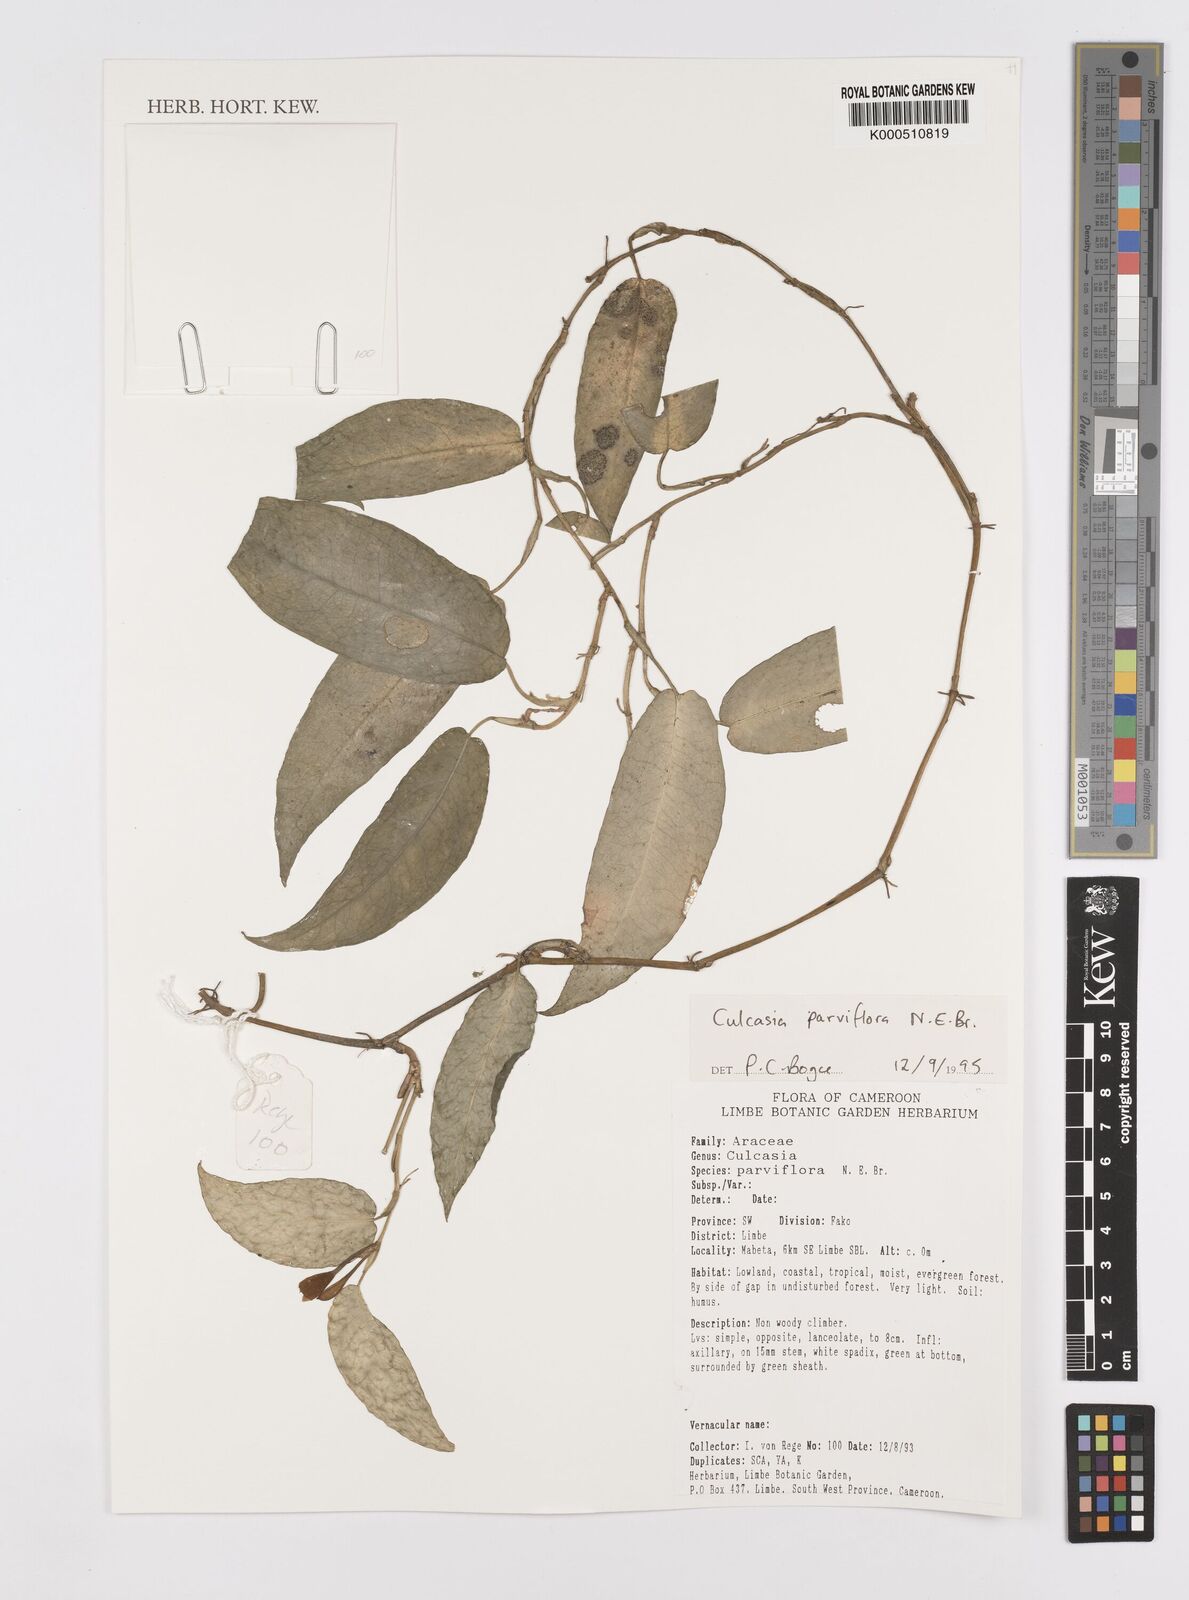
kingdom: Plantae
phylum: Tracheophyta
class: Liliopsida
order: Alismatales
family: Araceae
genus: Culcasia
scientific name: Culcasia parviflora
